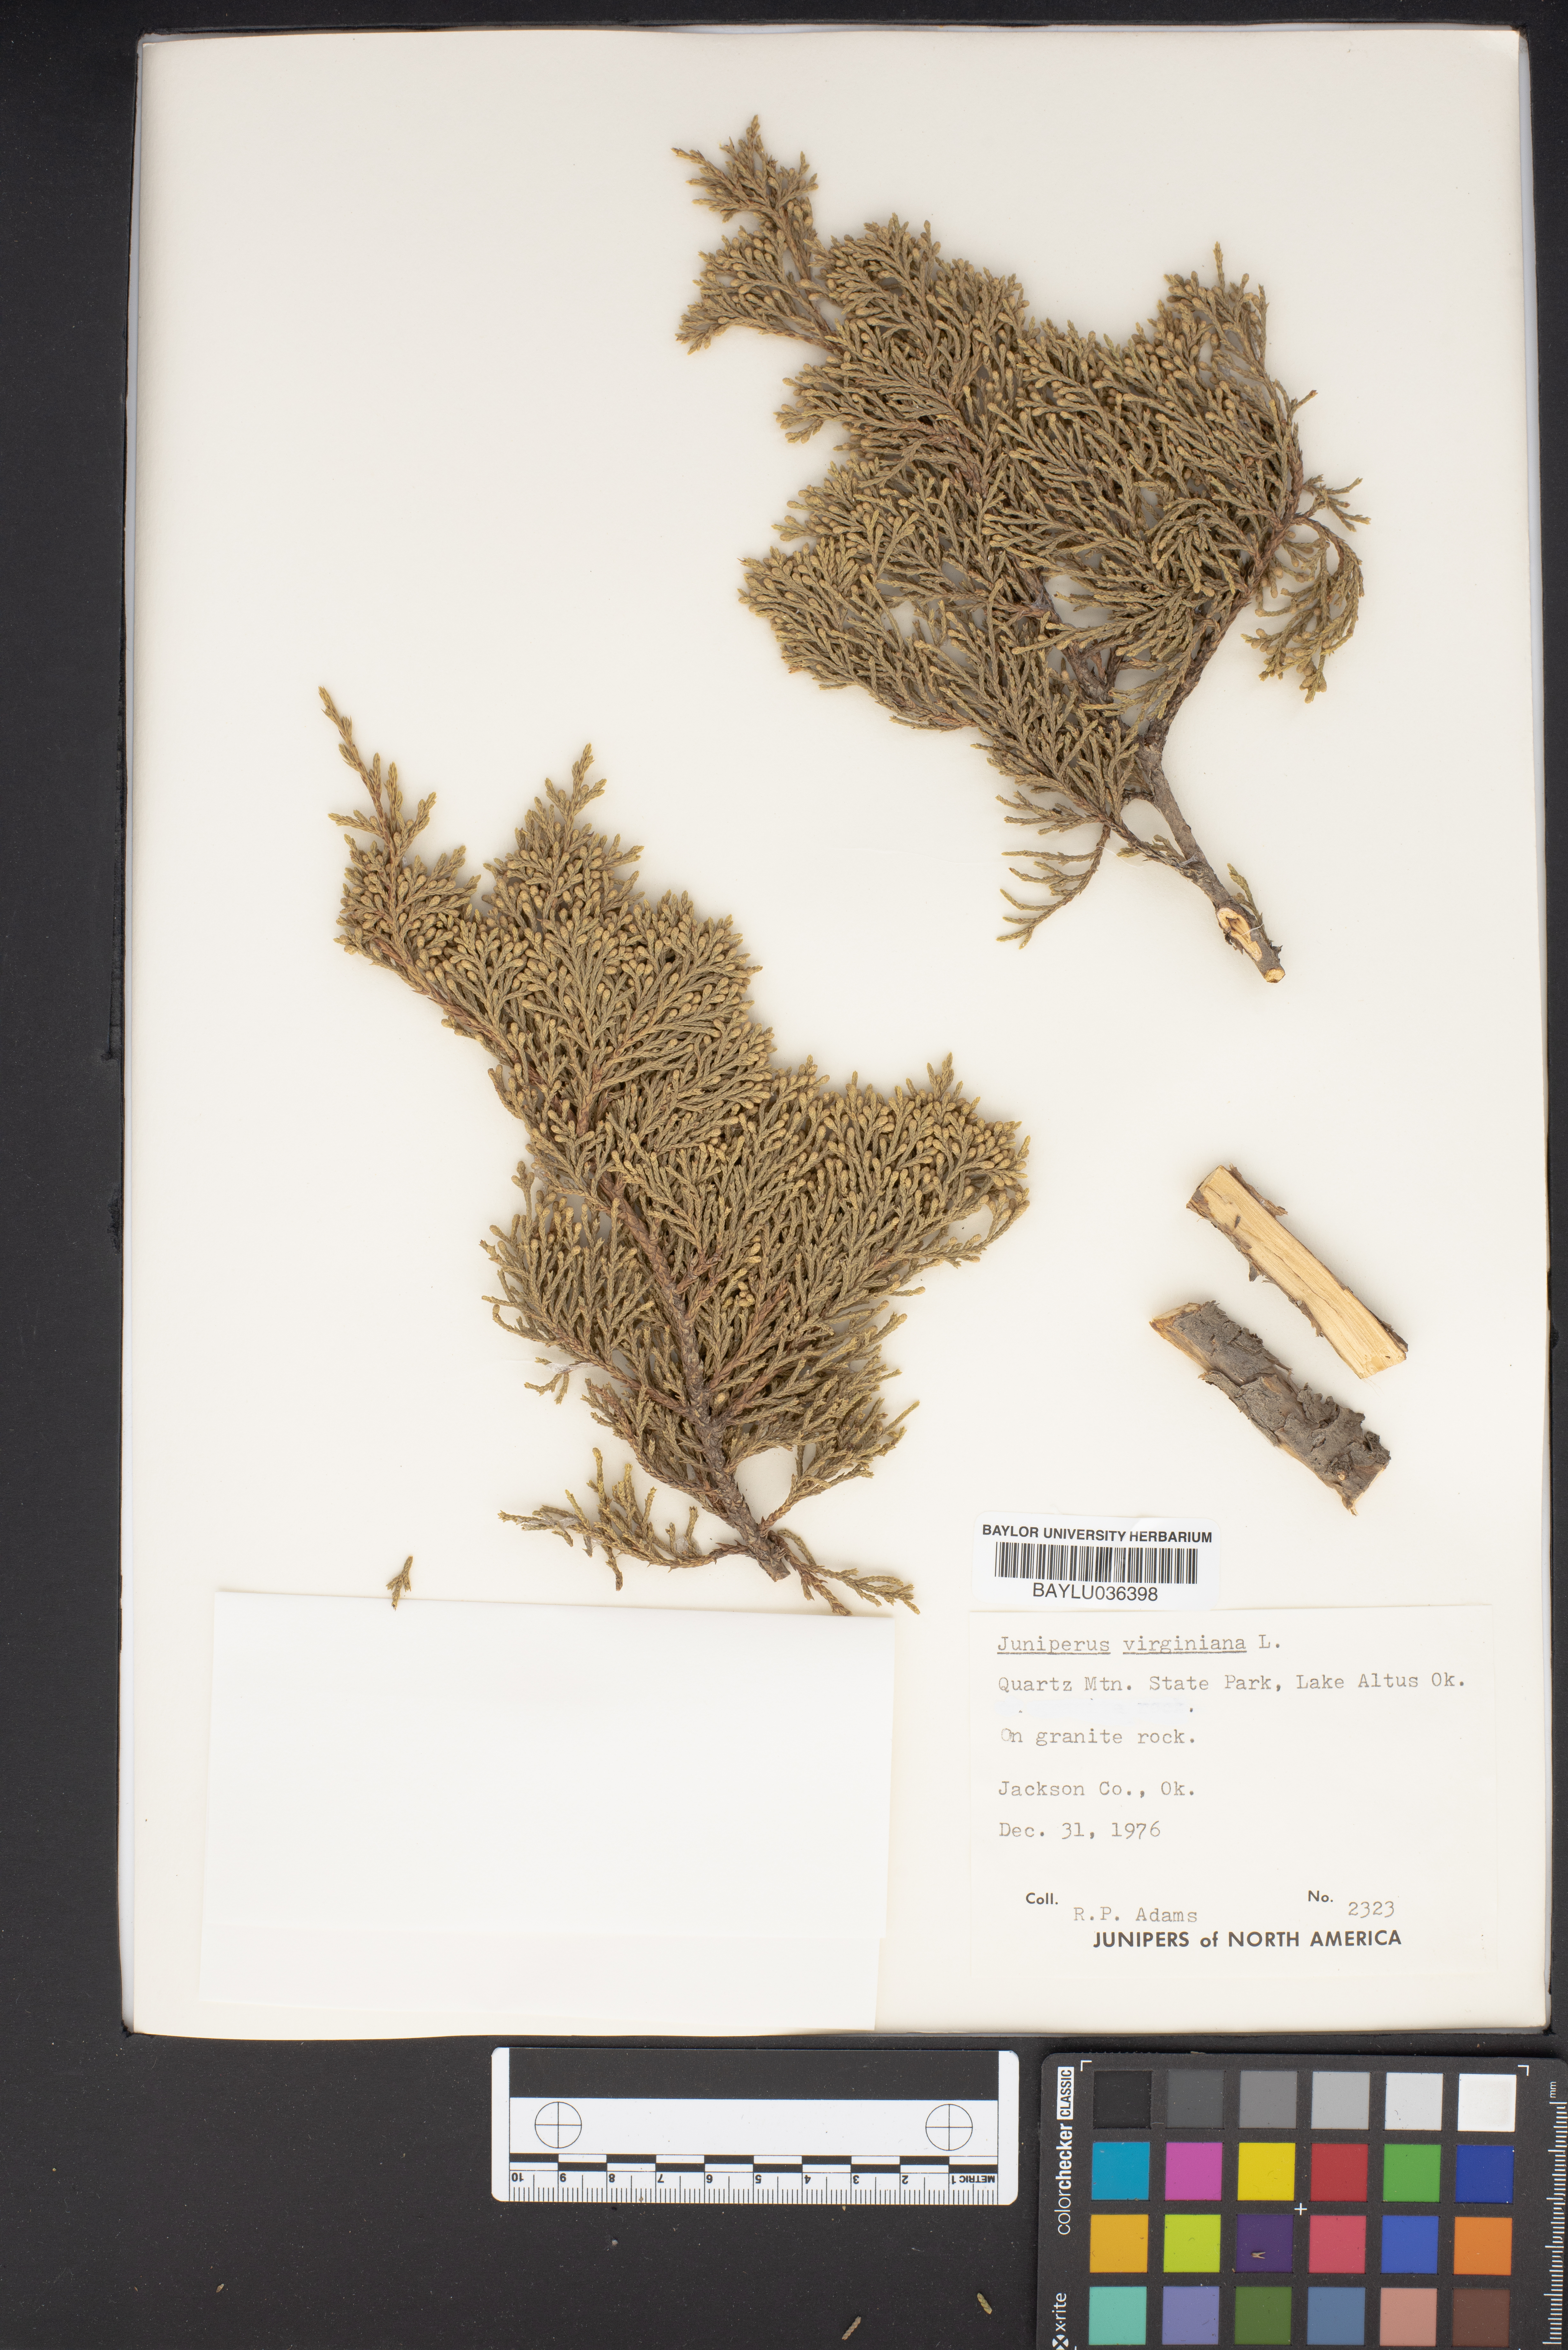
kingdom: Plantae
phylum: Tracheophyta
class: Pinopsida
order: Pinales
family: Cupressaceae
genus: Juniperus
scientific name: Juniperus virginiana
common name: Red juniper
